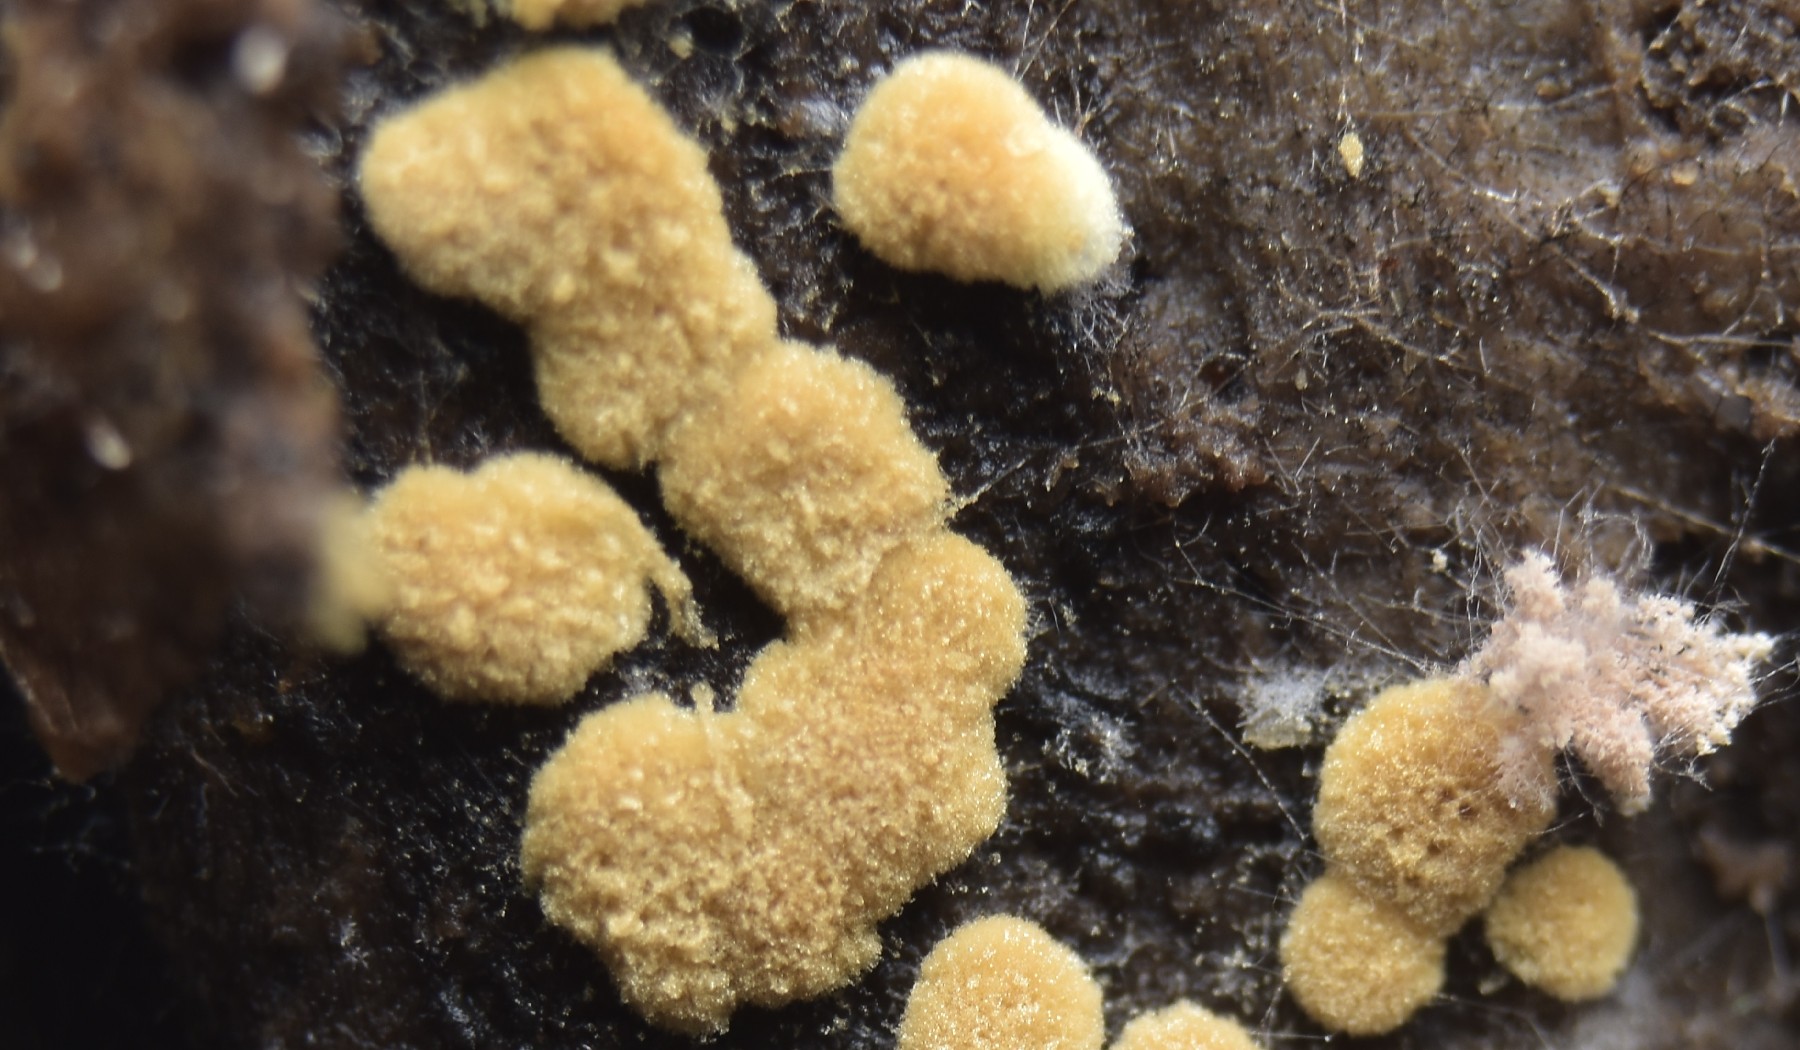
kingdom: Fungi
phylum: Basidiomycota
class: Agaricomycetes
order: Cantharellales
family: Botryobasidiaceae
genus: Botryobasidium
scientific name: Botryobasidium aureum
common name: gylden spindhinde
